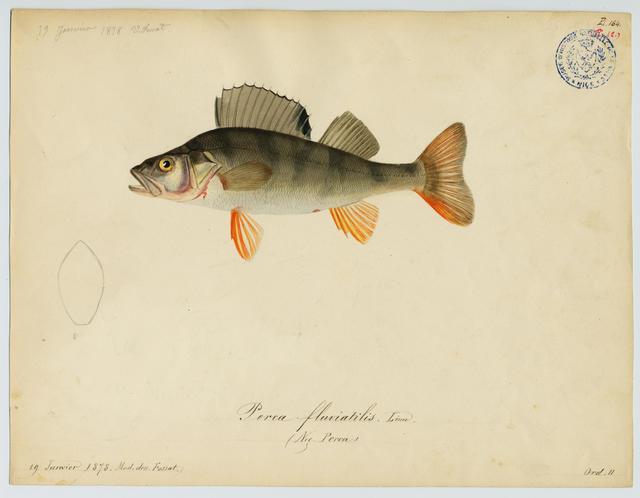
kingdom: Animalia
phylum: Chordata
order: Perciformes
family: Percidae
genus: Perca
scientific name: Perca fluviatilis
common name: Perch
